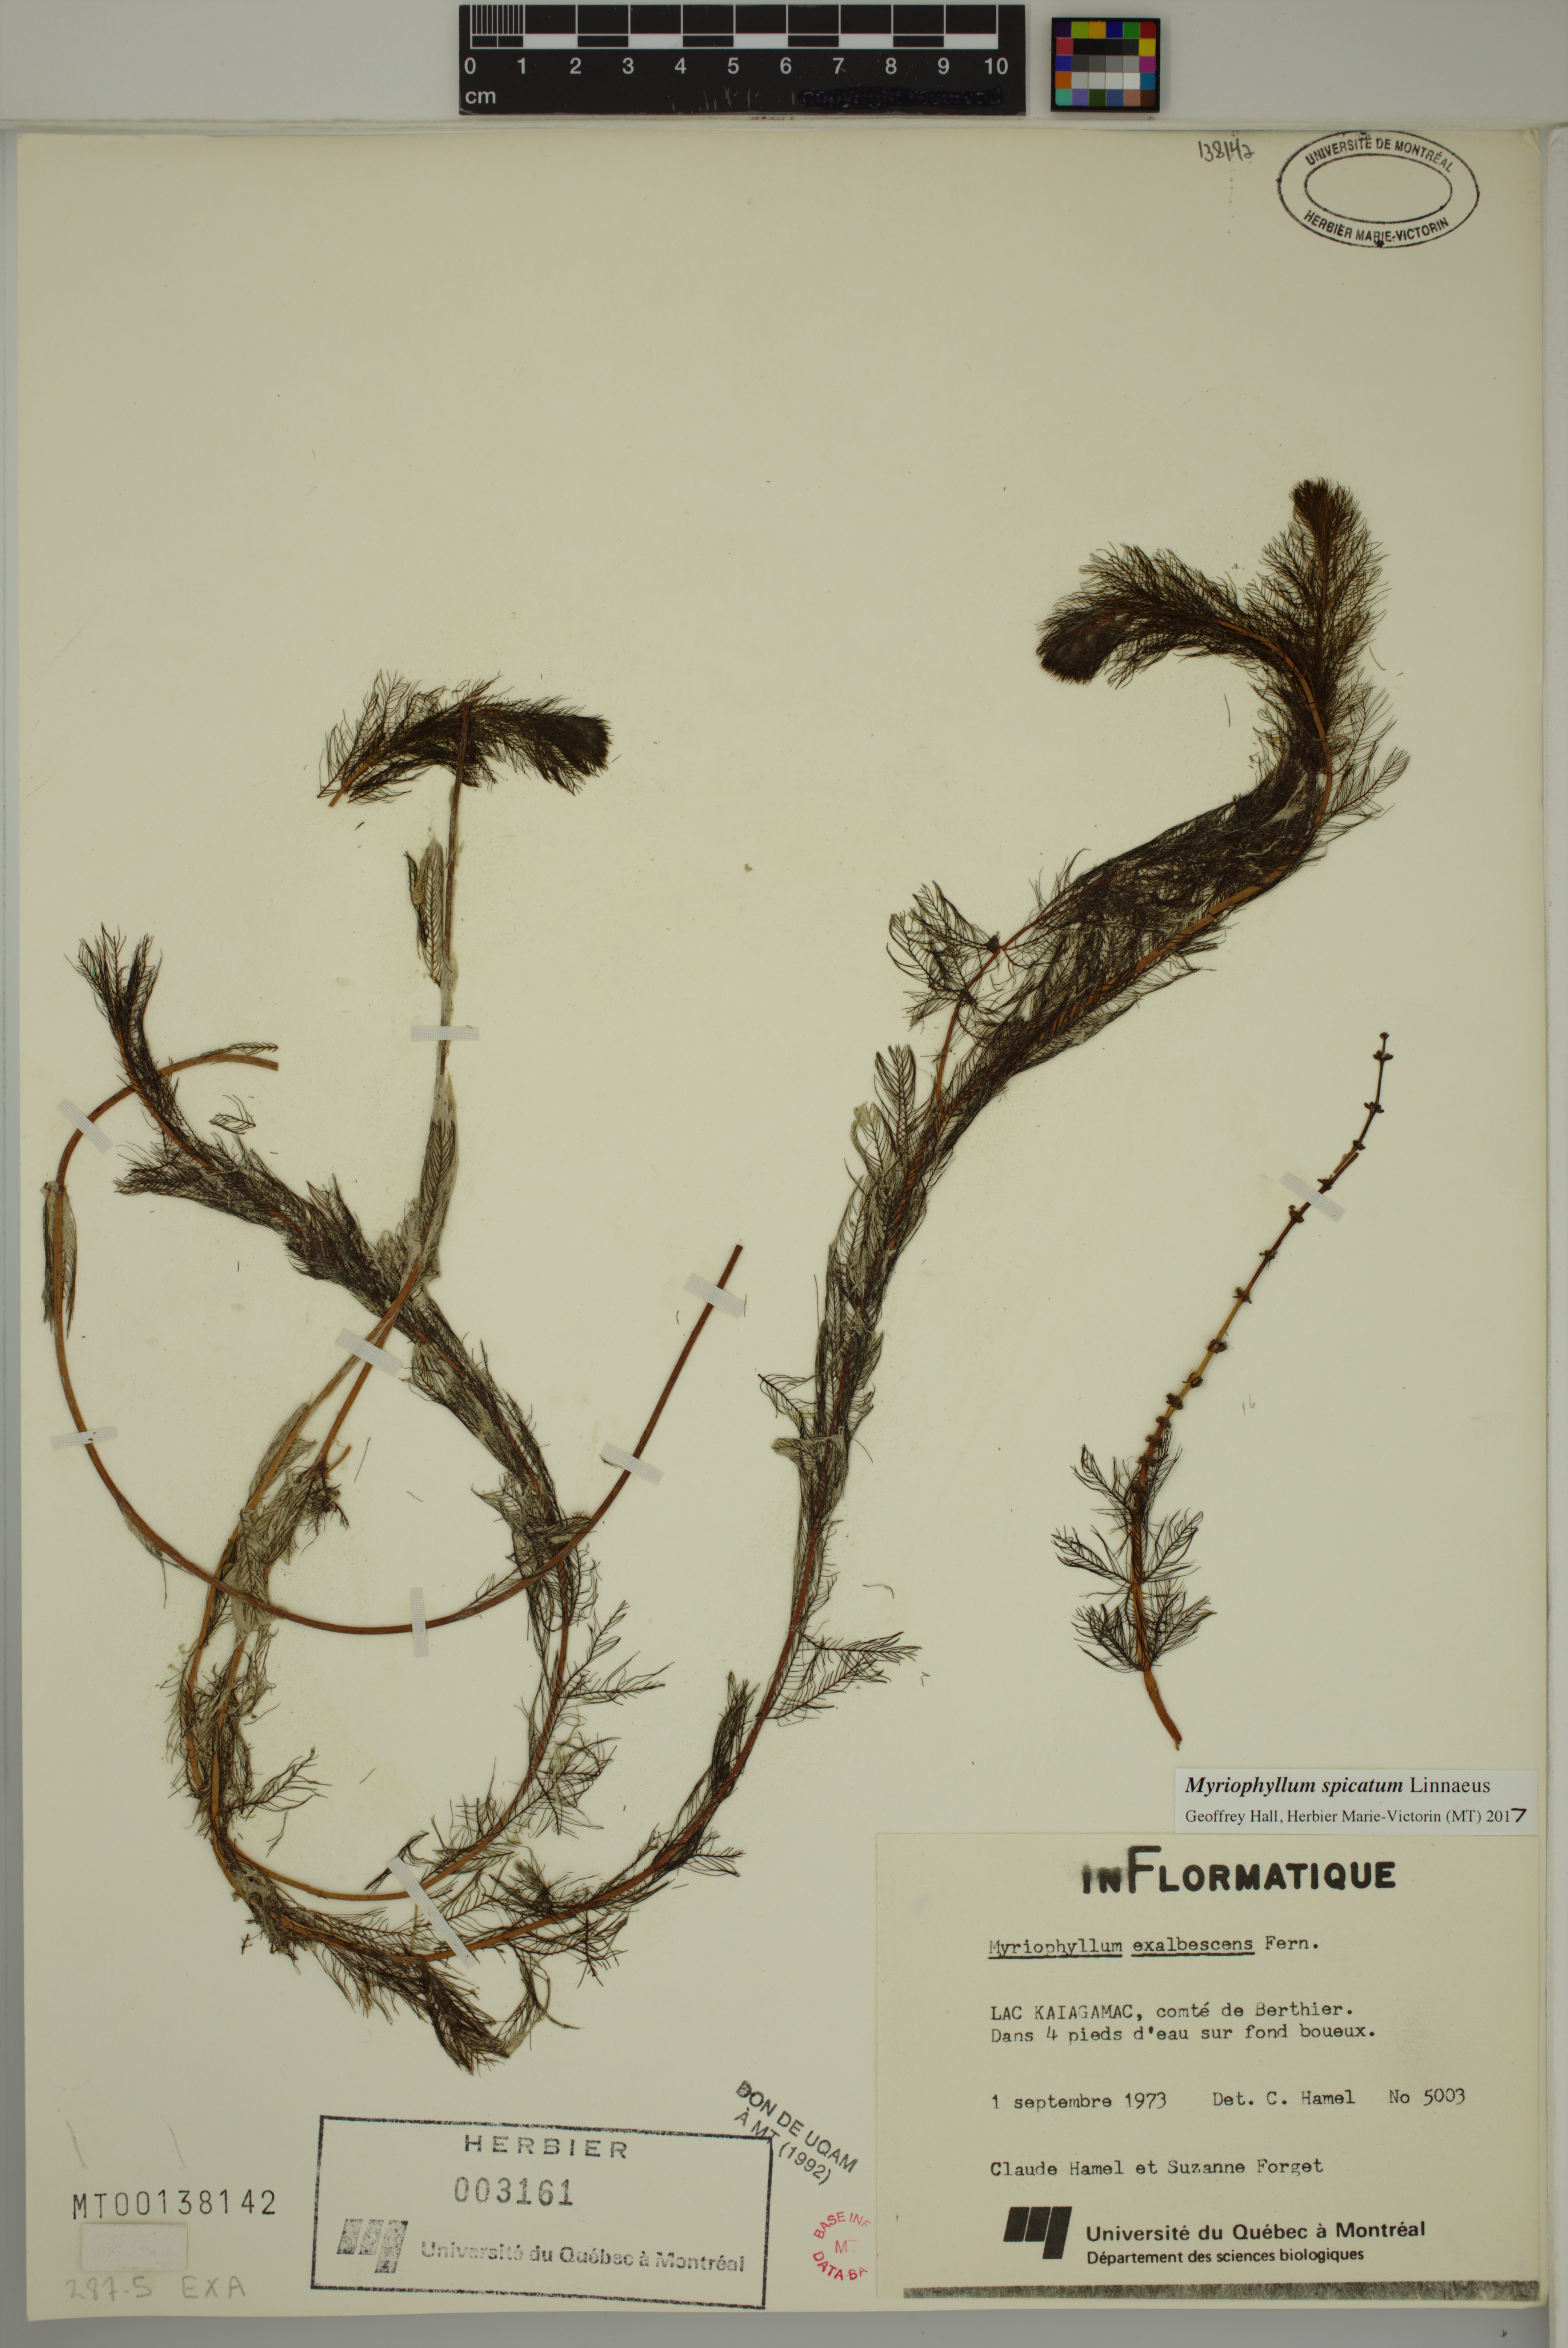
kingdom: Plantae
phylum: Tracheophyta
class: Magnoliopsida
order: Saxifragales
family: Haloragaceae
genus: Myriophyllum
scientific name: Myriophyllum spicatum
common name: Spiked water-milfoil
